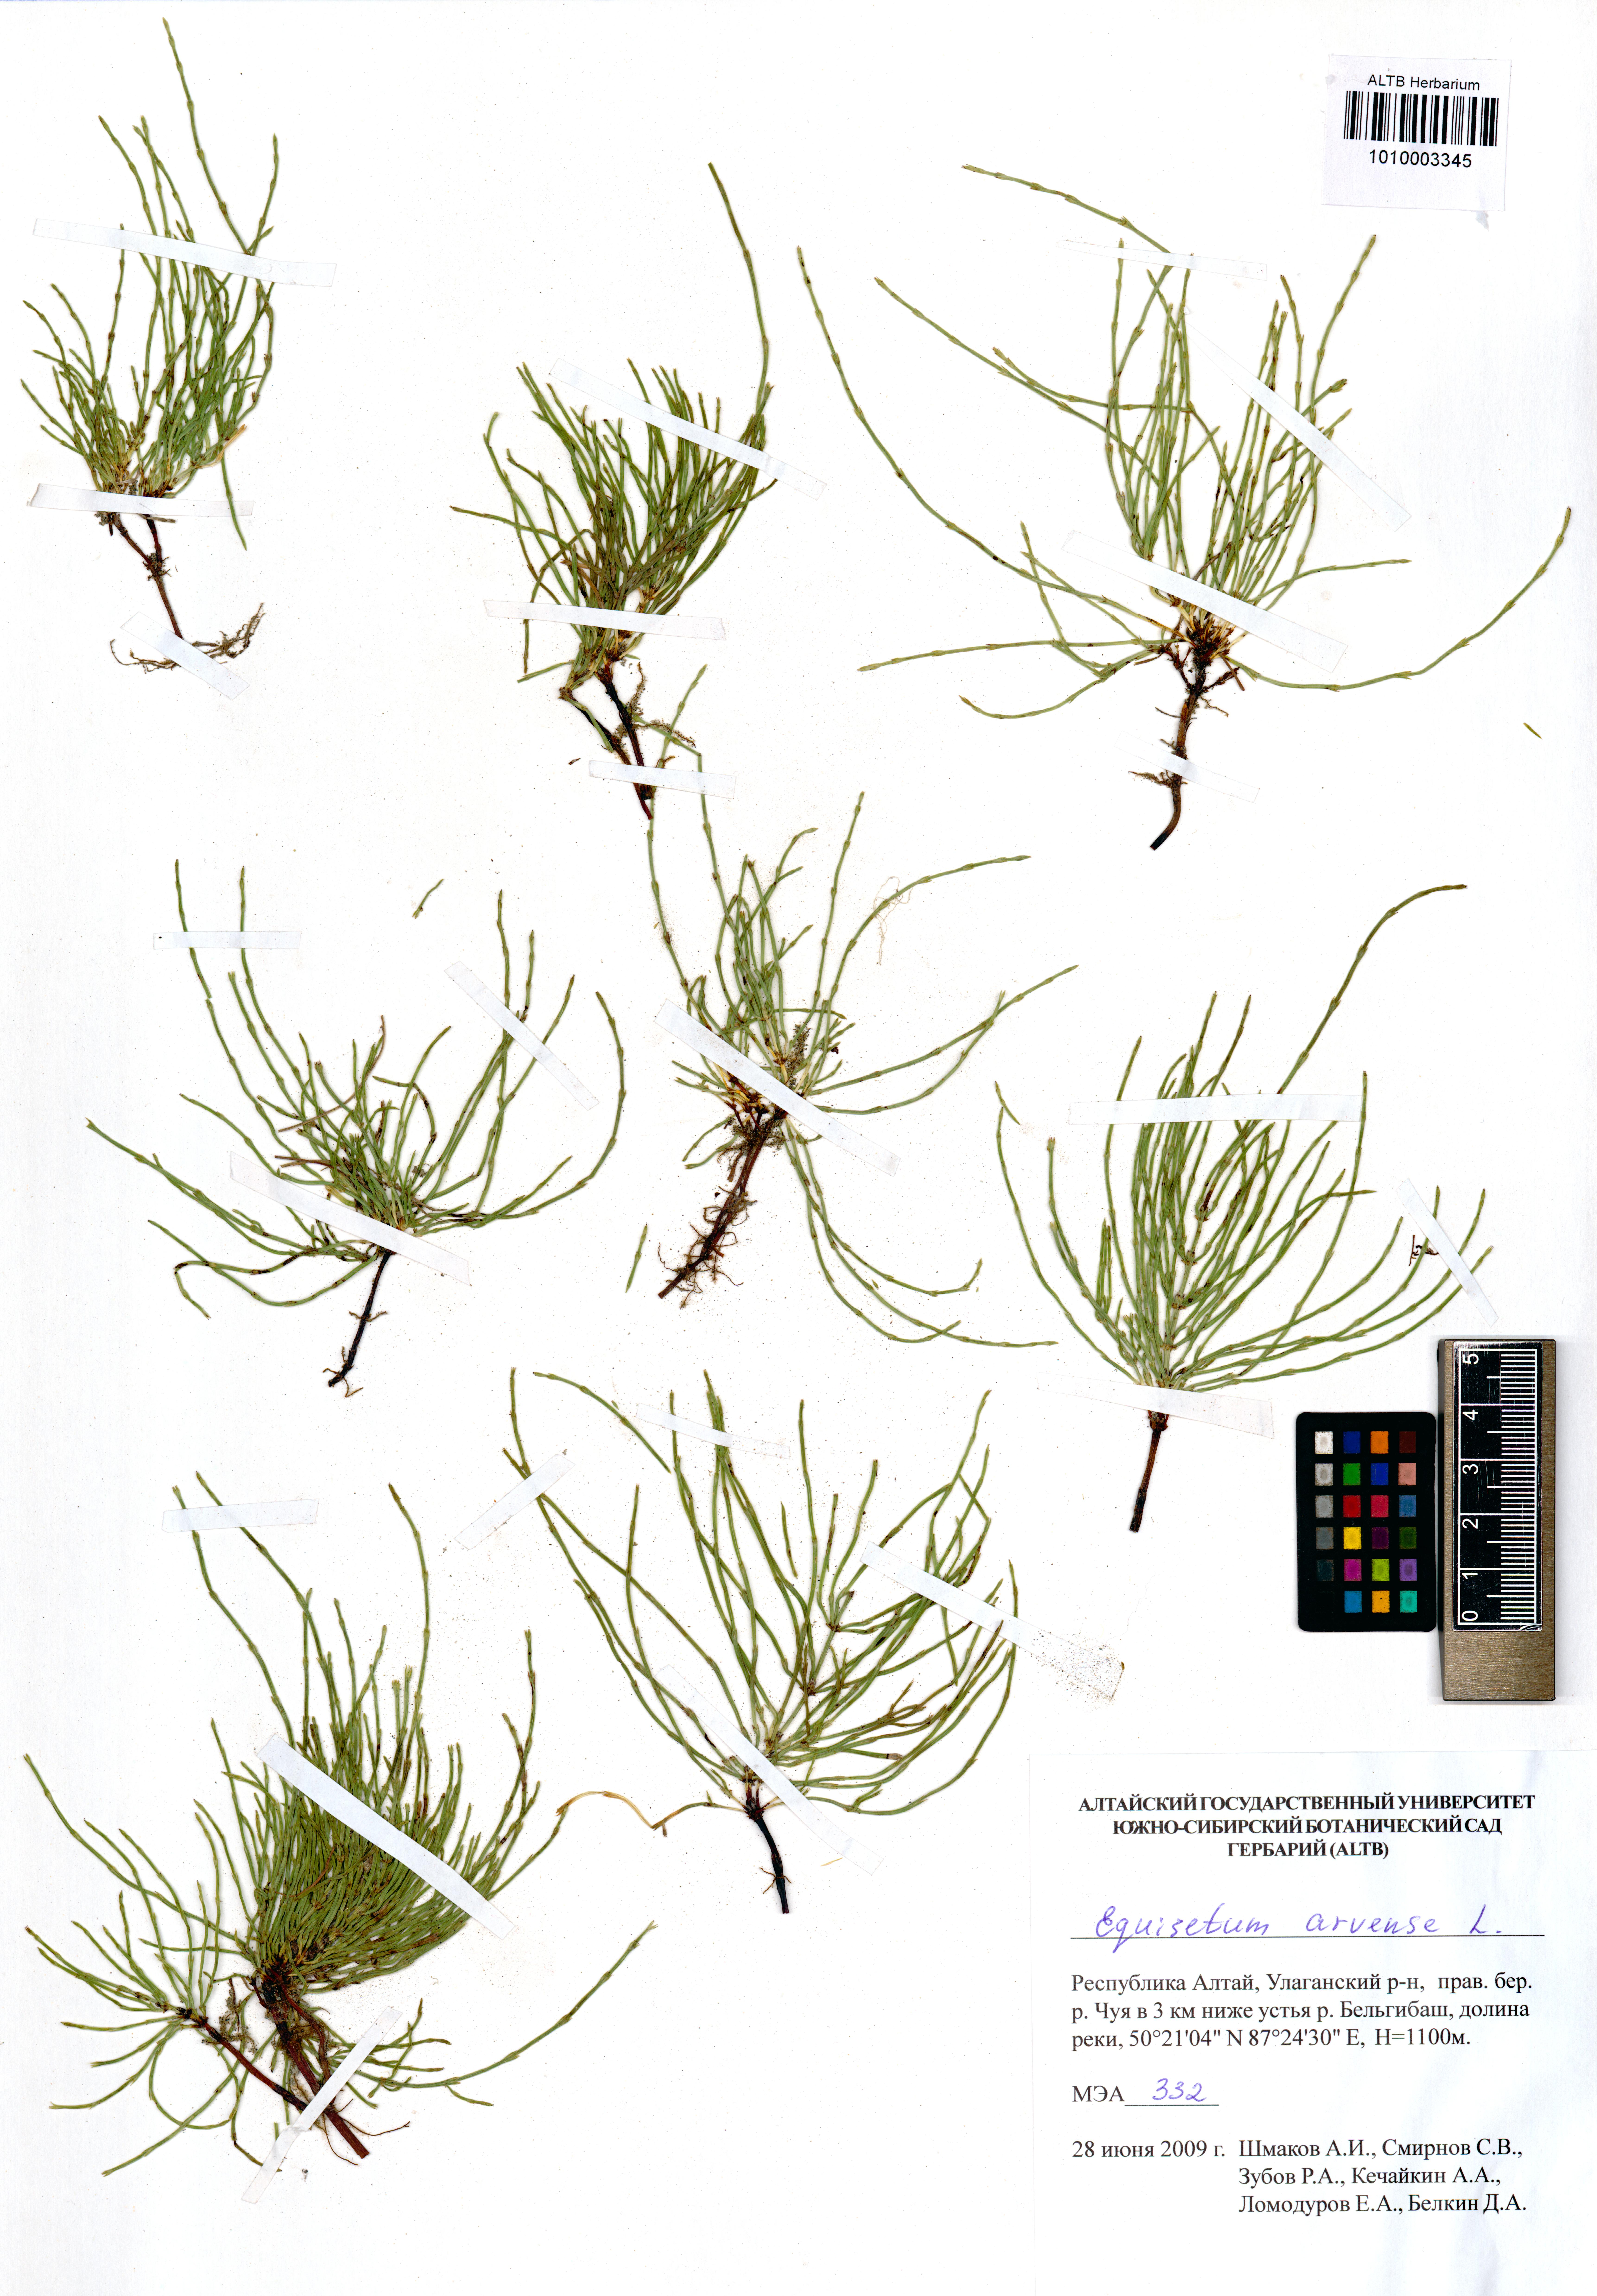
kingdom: Plantae
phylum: Tracheophyta
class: Polypodiopsida
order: Equisetales
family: Equisetaceae
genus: Equisetum
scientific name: Equisetum arvense
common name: Field horsetail
